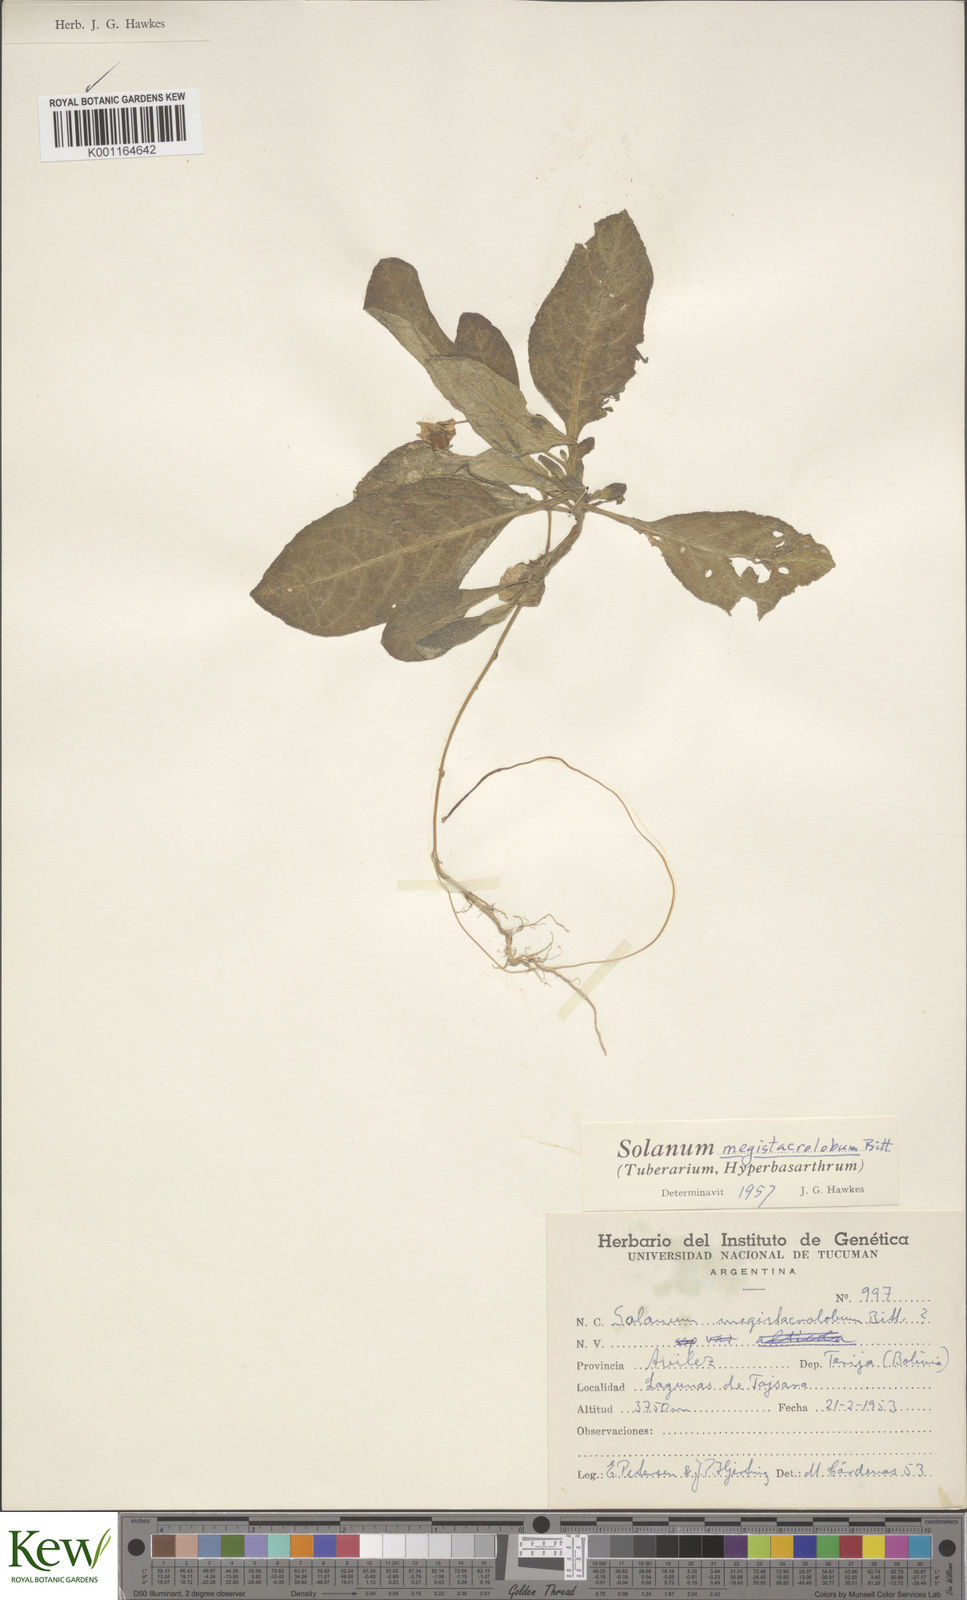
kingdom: Plantae
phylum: Tracheophyta
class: Magnoliopsida
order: Solanales
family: Solanaceae
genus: Solanum
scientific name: Solanum boliviense
